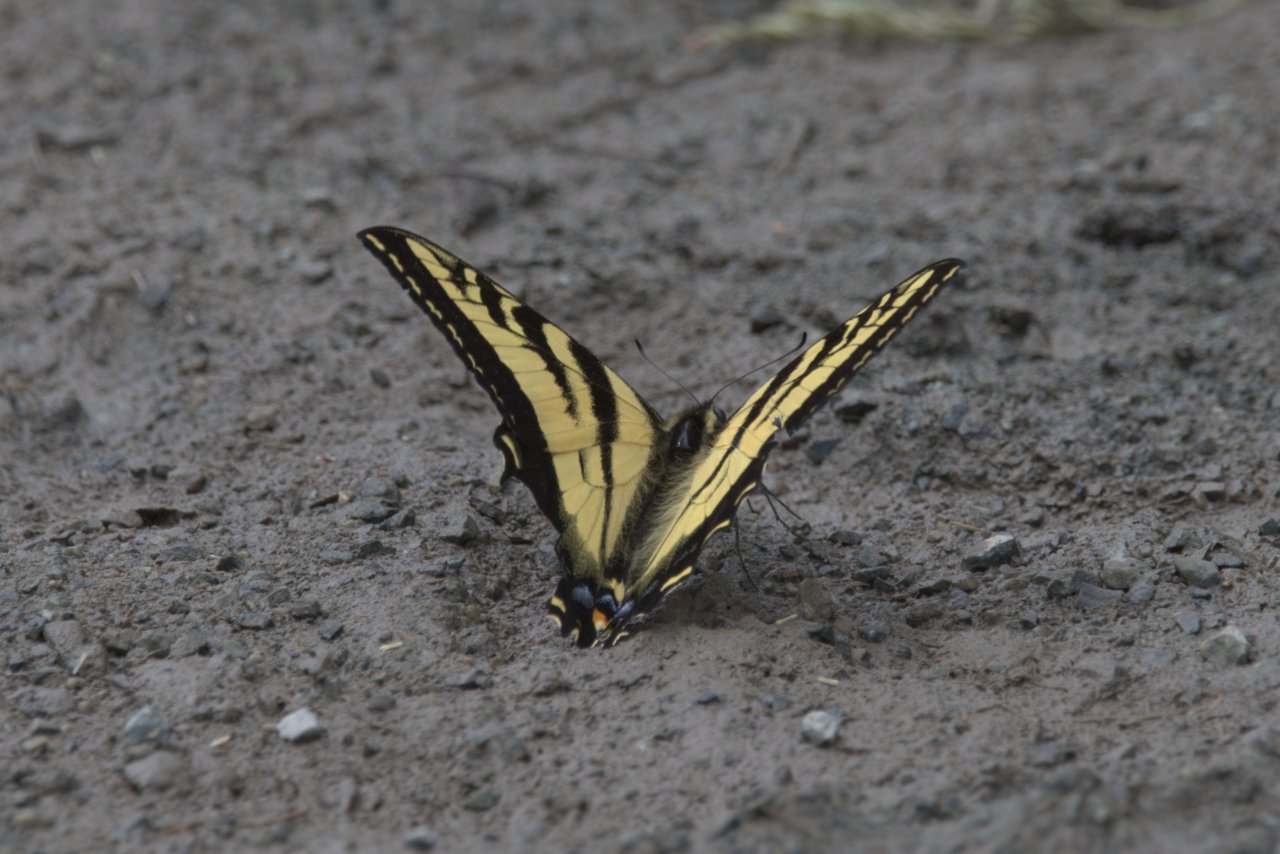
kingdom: Animalia
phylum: Arthropoda
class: Insecta
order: Lepidoptera
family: Papilionidae
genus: Pterourus
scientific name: Pterourus rutulus
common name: Western Tiger Swallowtail
